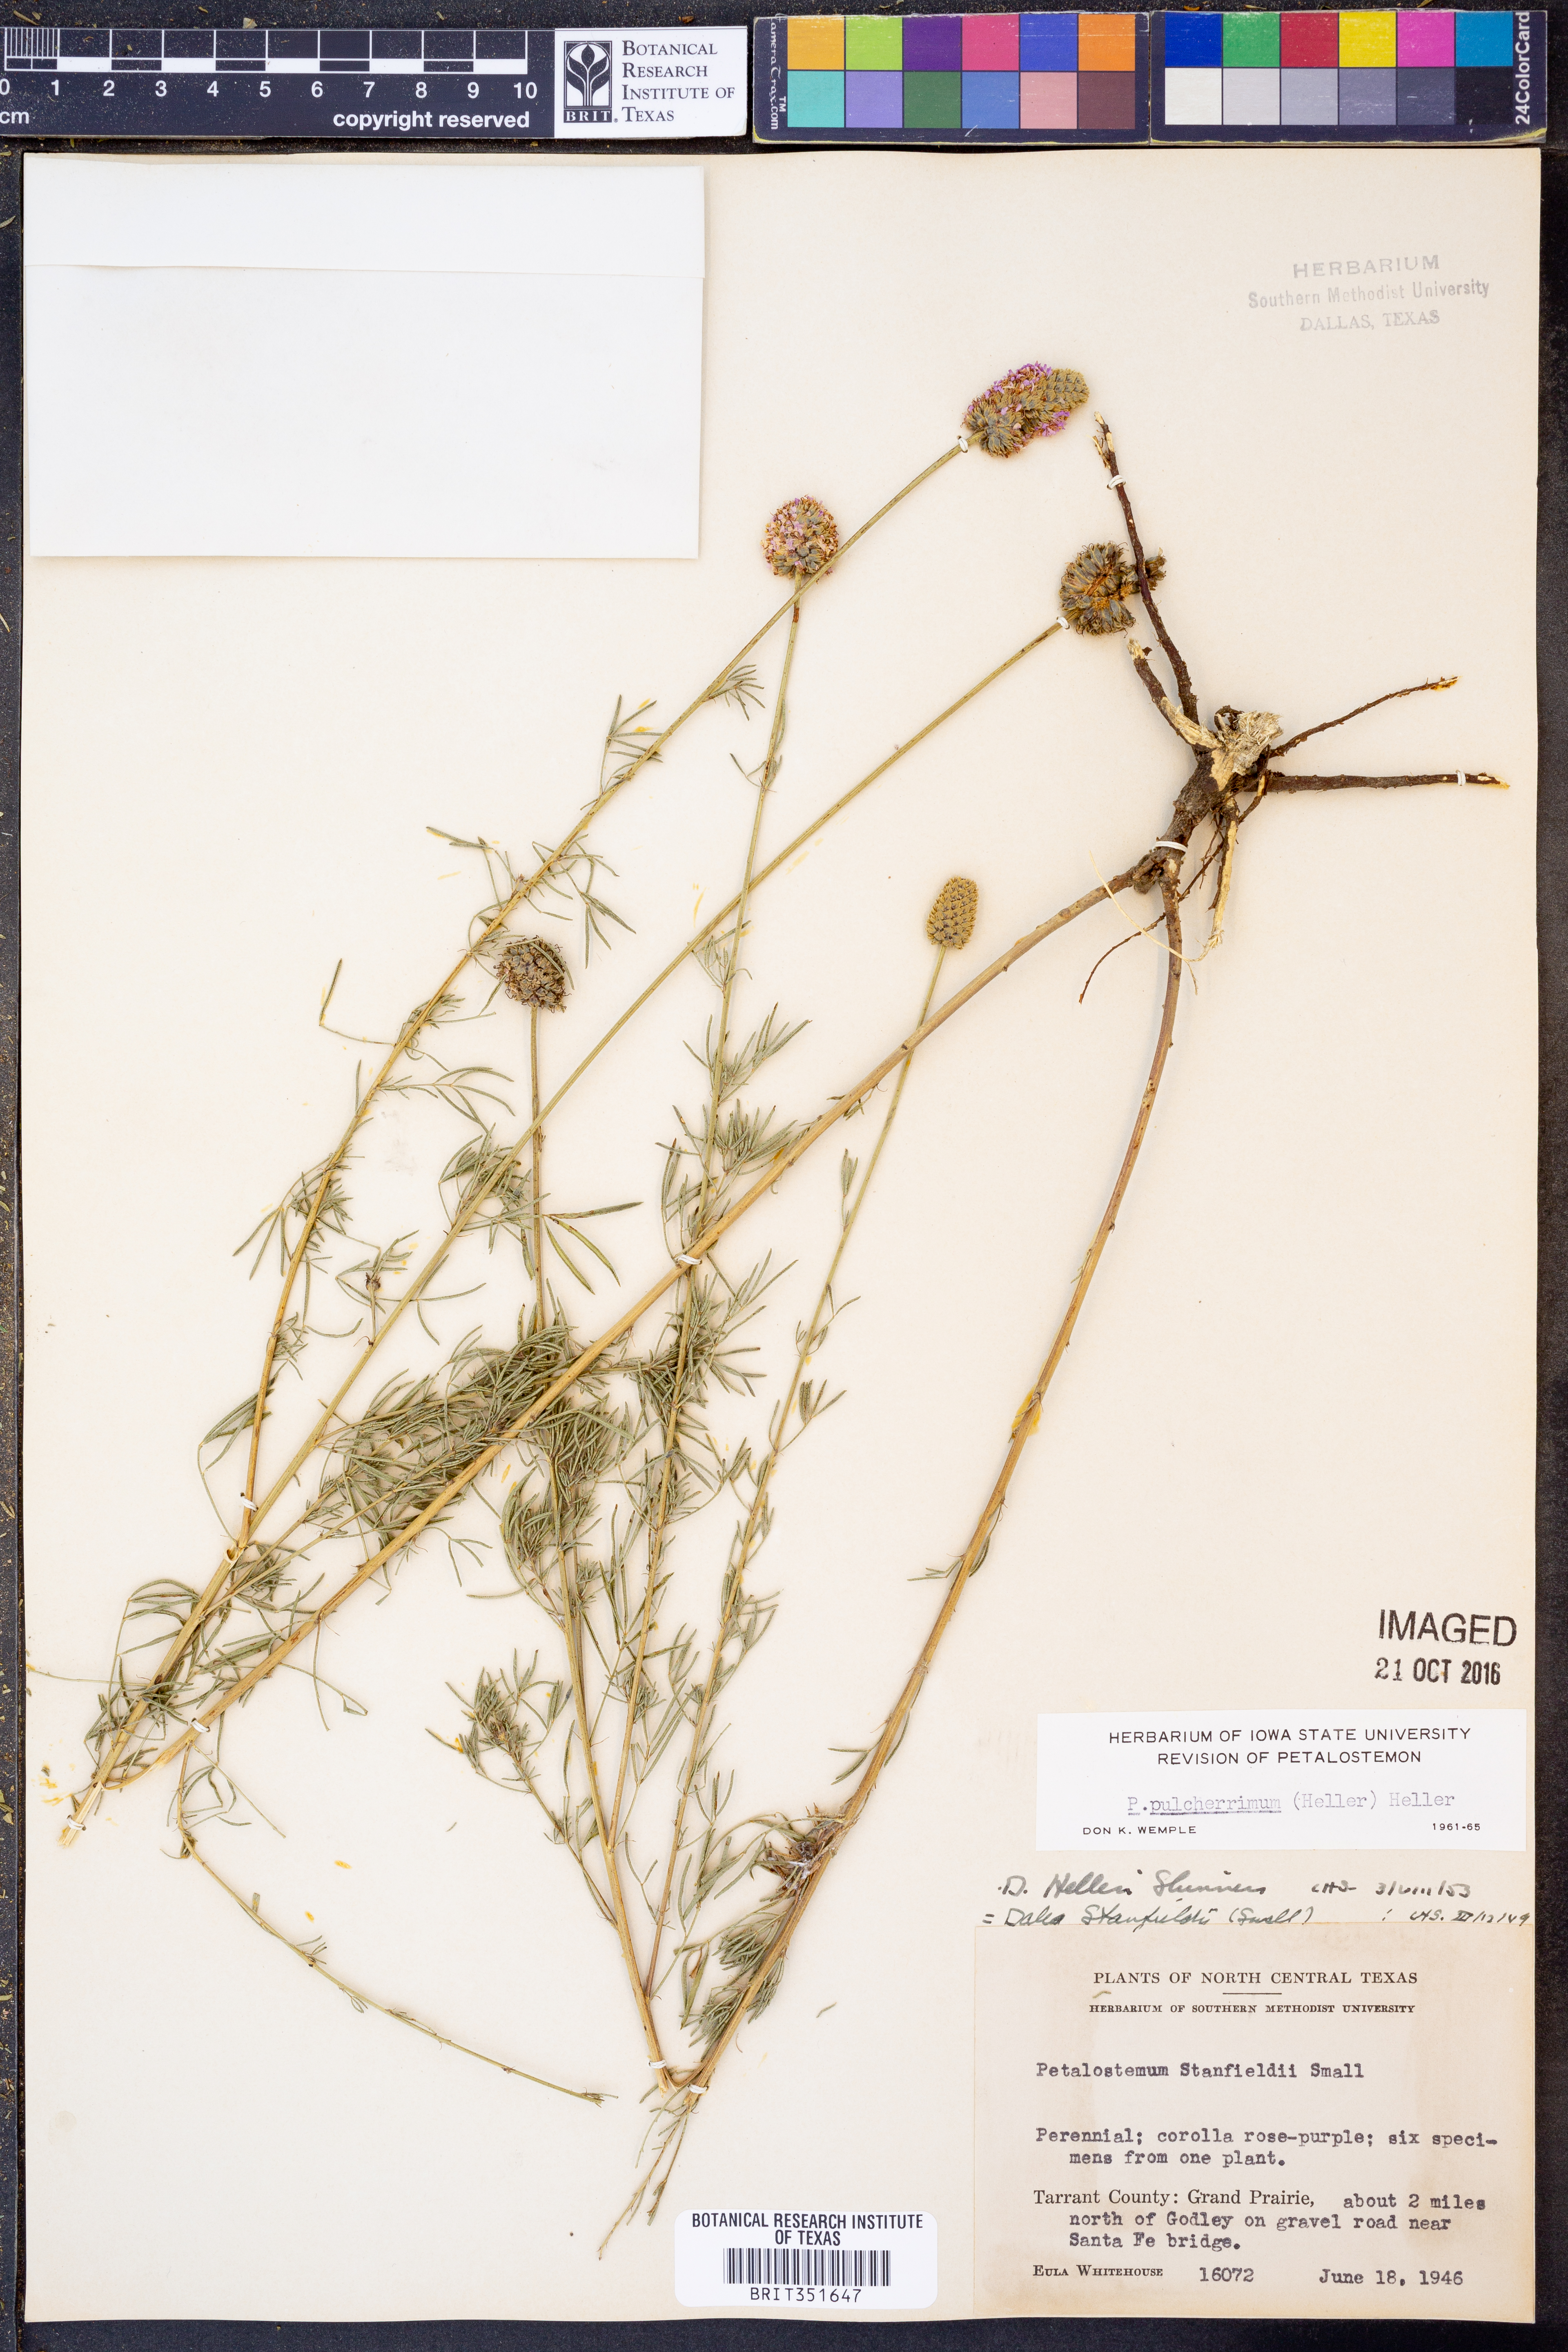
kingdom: Plantae
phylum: Tracheophyta
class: Magnoliopsida
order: Fabales
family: Fabaceae
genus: Dalea
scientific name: Dalea compacta
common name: Compact prairie-clover
